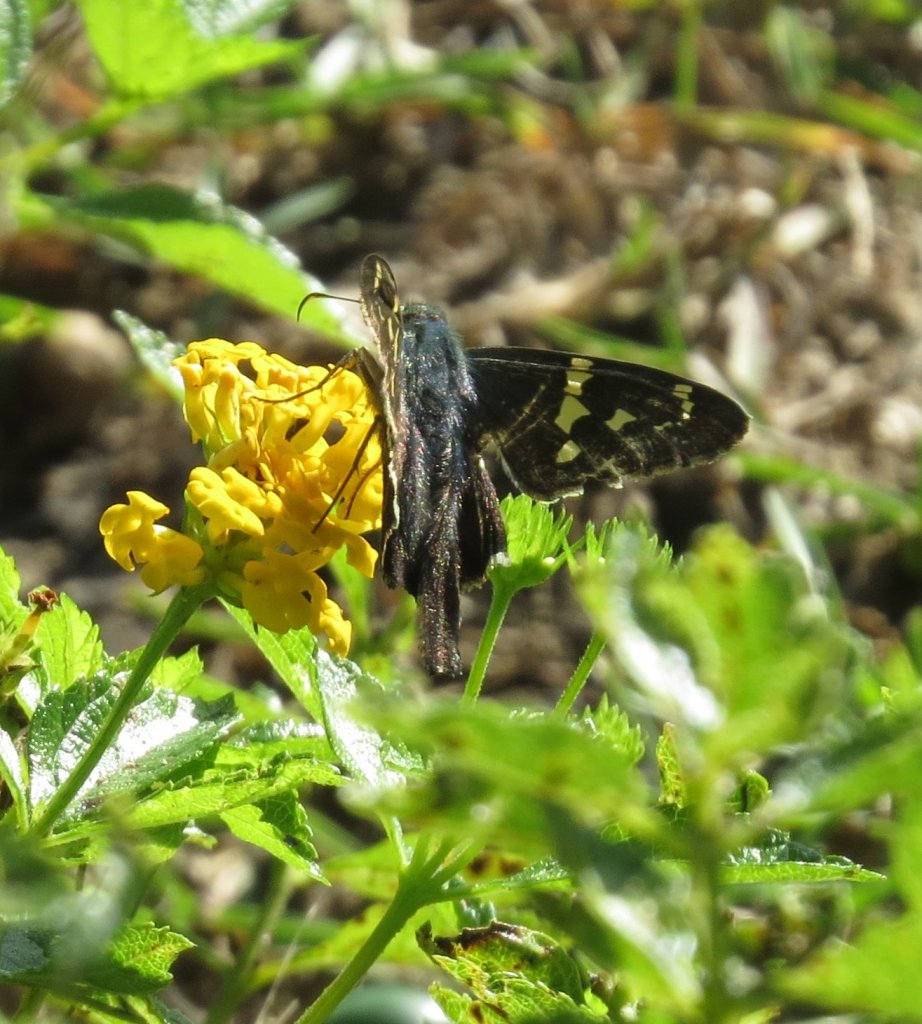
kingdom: Animalia
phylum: Arthropoda
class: Insecta
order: Lepidoptera
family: Hesperiidae
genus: Urbanus
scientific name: Urbanus proteus
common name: Long-tailed Skipper
